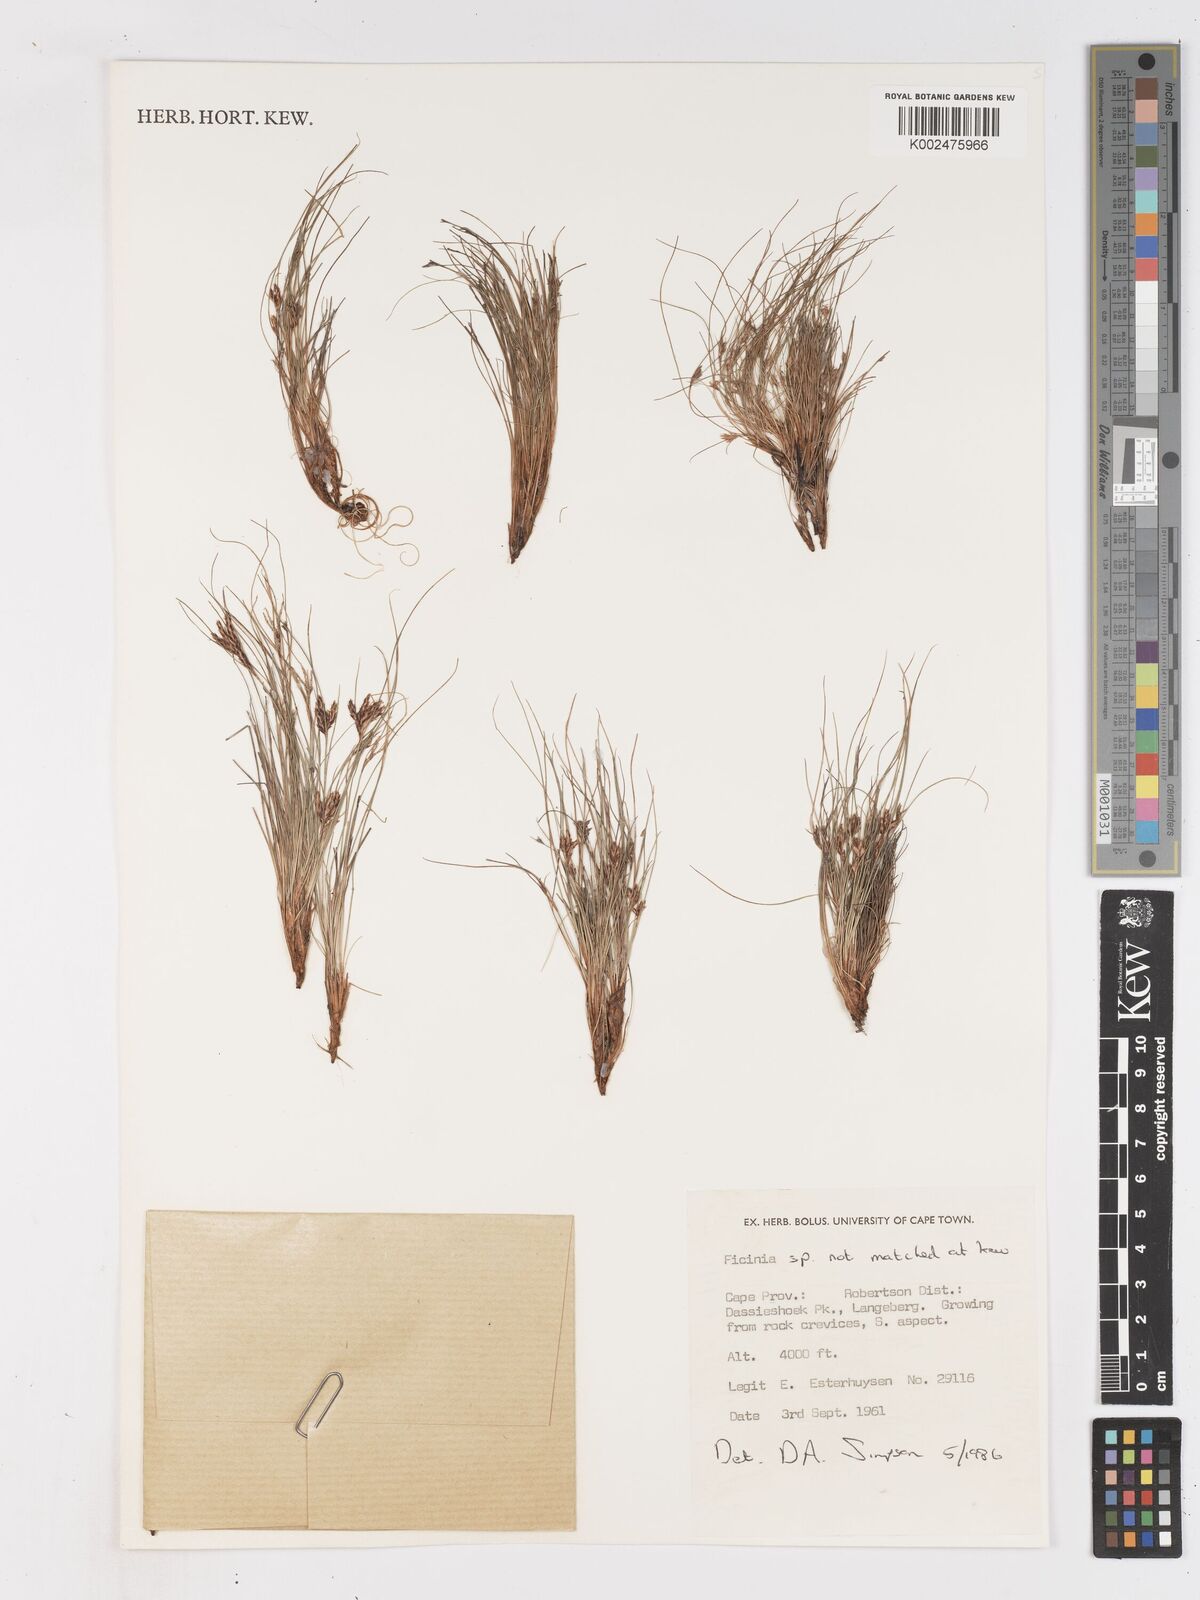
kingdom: Plantae
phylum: Tracheophyta
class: Liliopsida
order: Poales
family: Cyperaceae
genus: Ficinia
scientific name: Ficinia esterhuyseniae
